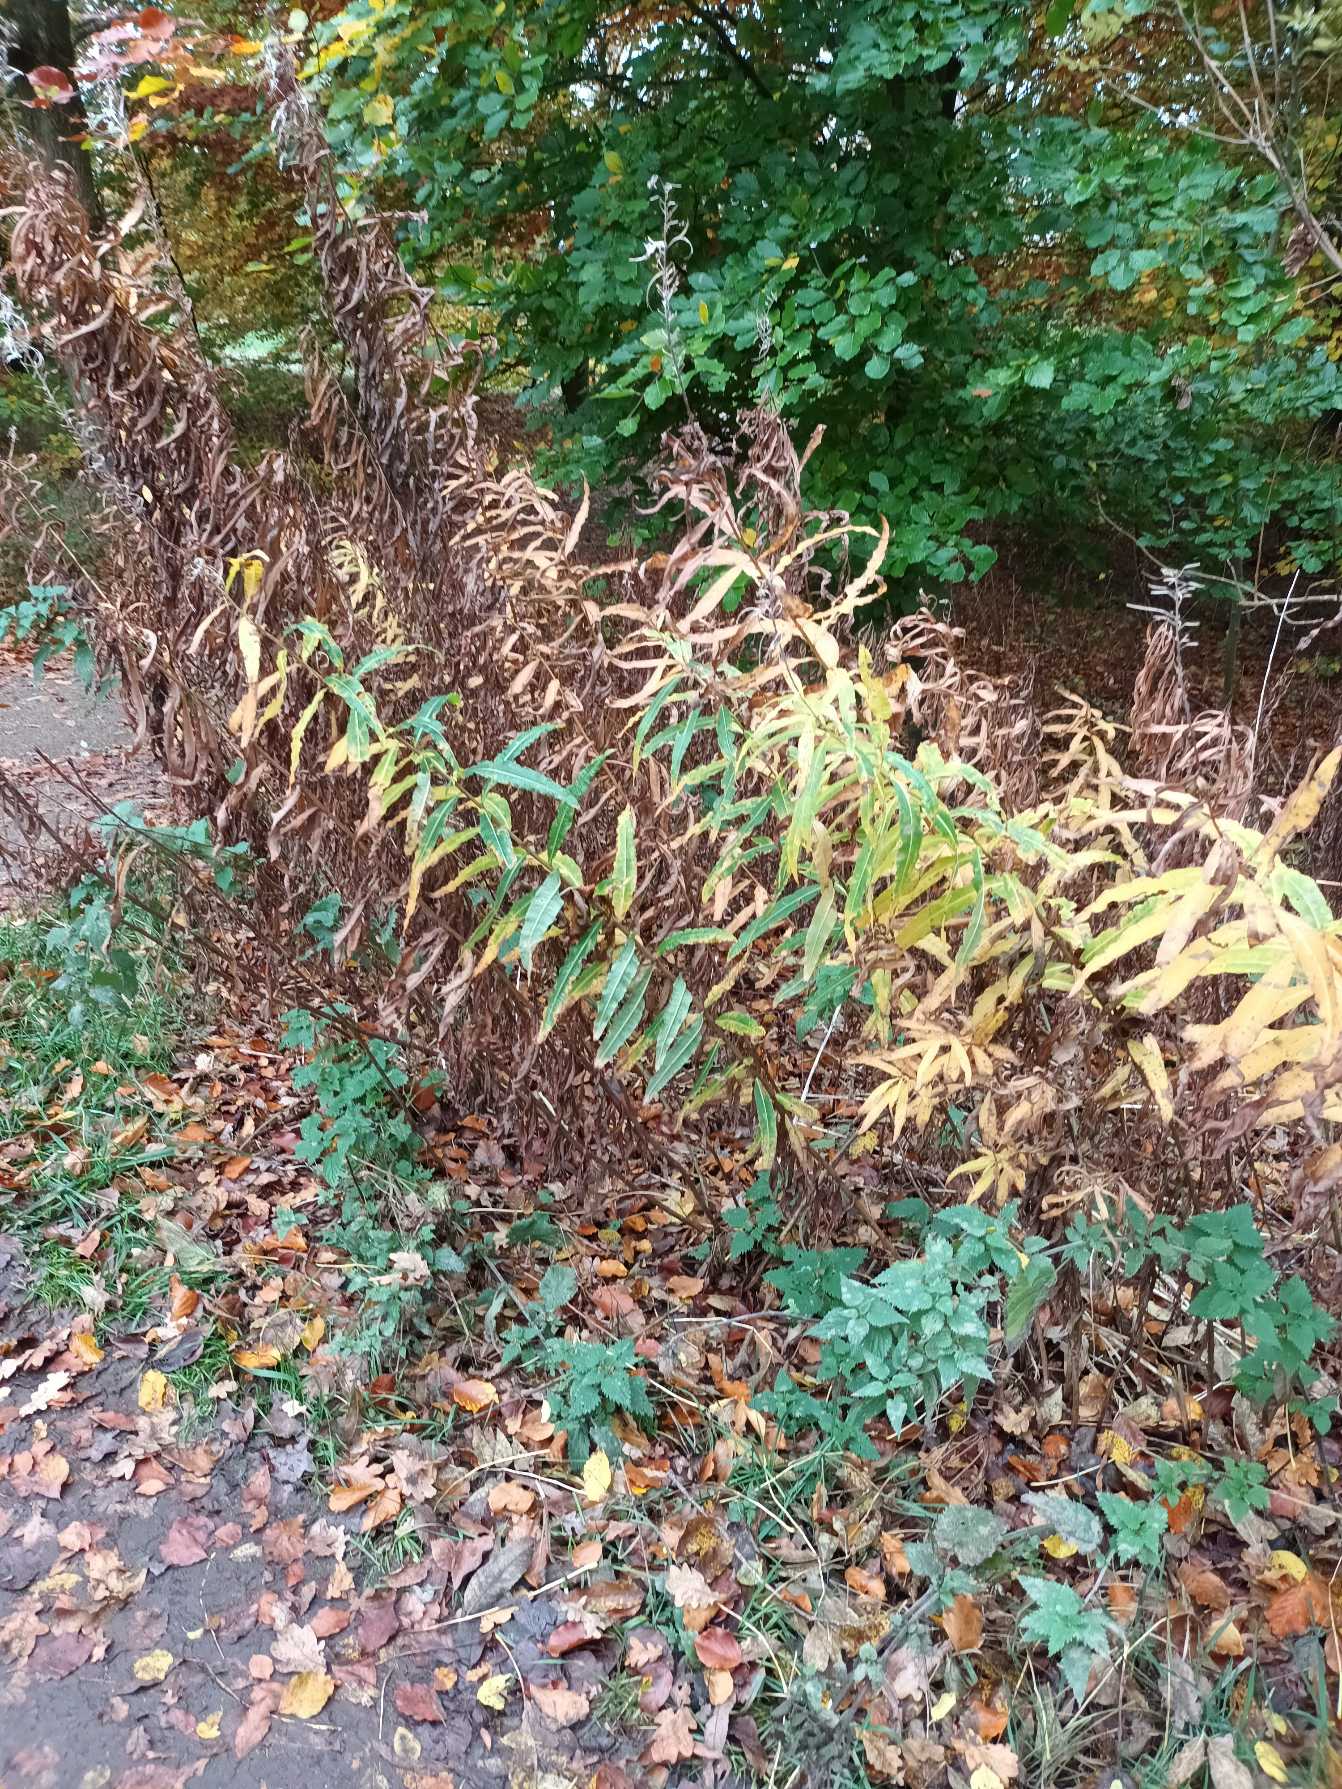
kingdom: Plantae
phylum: Tracheophyta
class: Magnoliopsida
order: Myrtales
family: Onagraceae
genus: Chamaenerion
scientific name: Chamaenerion angustifolium
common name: Gederams
